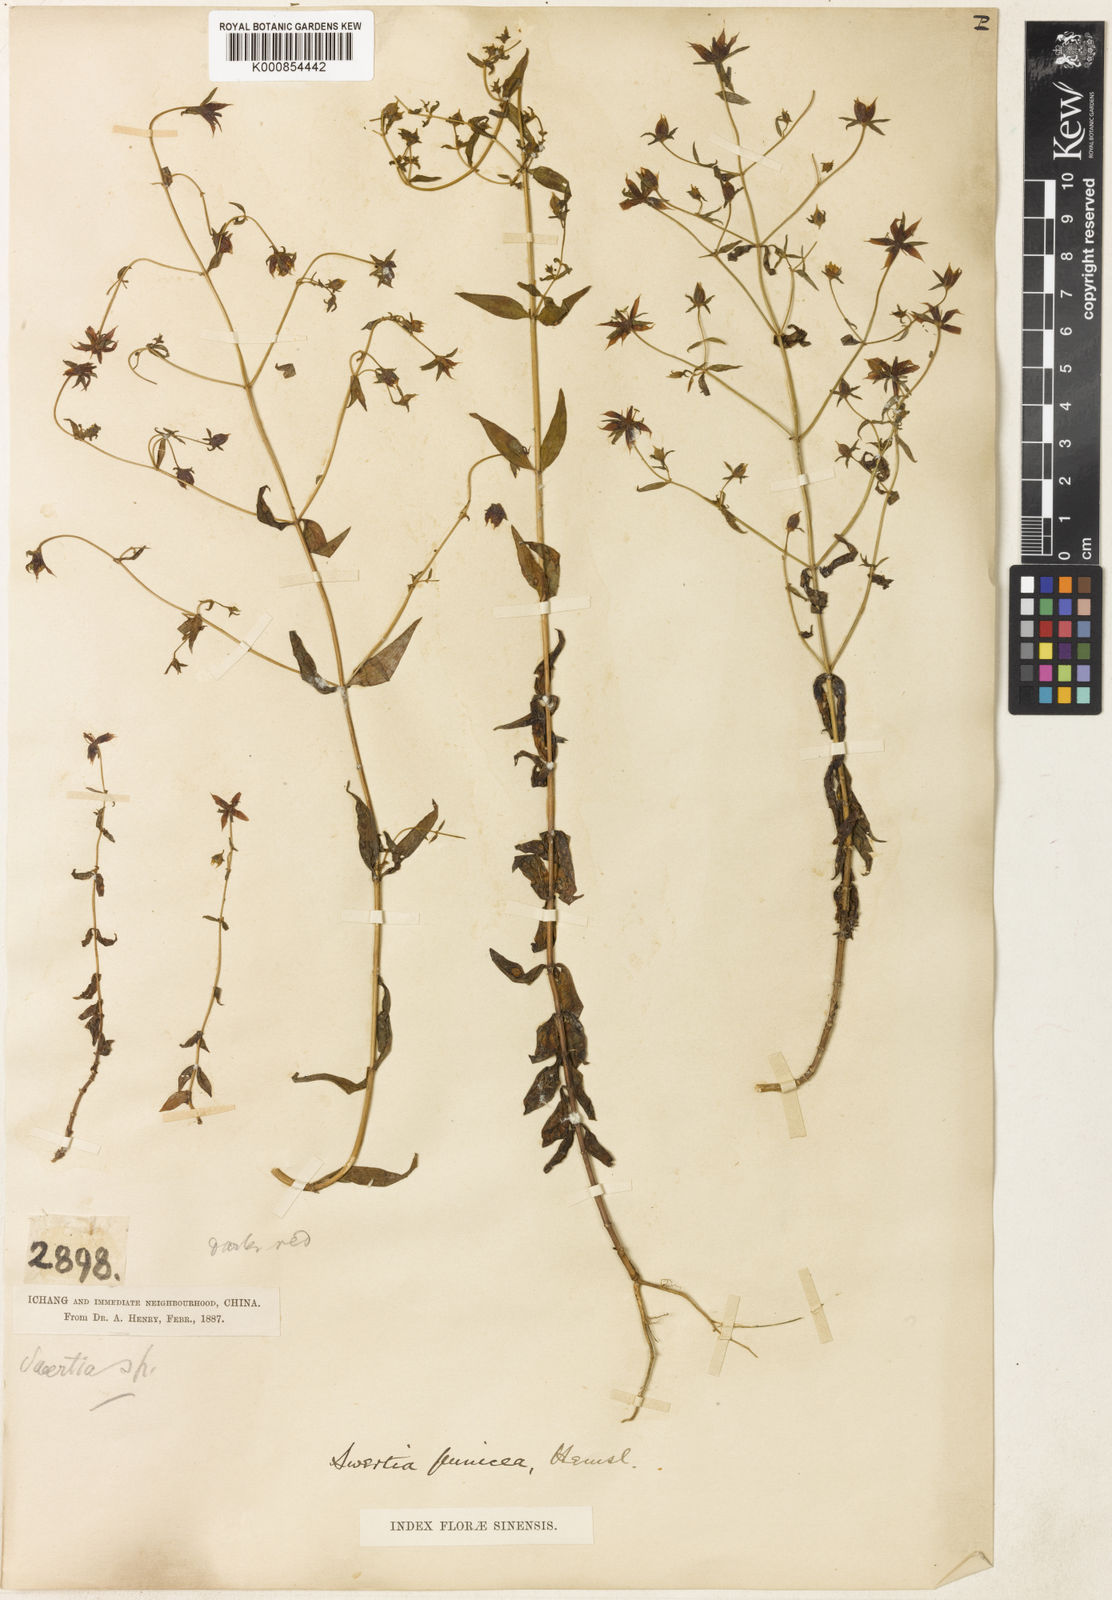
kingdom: Plantae
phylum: Tracheophyta
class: Magnoliopsida
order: Gentianales
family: Gentianaceae
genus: Swertia
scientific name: Swertia punicea
